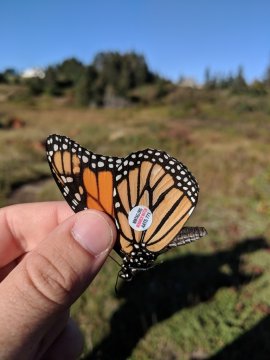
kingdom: Animalia
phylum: Arthropoda
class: Insecta
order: Lepidoptera
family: Nymphalidae
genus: Danaus
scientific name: Danaus plexippus
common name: Monarch
